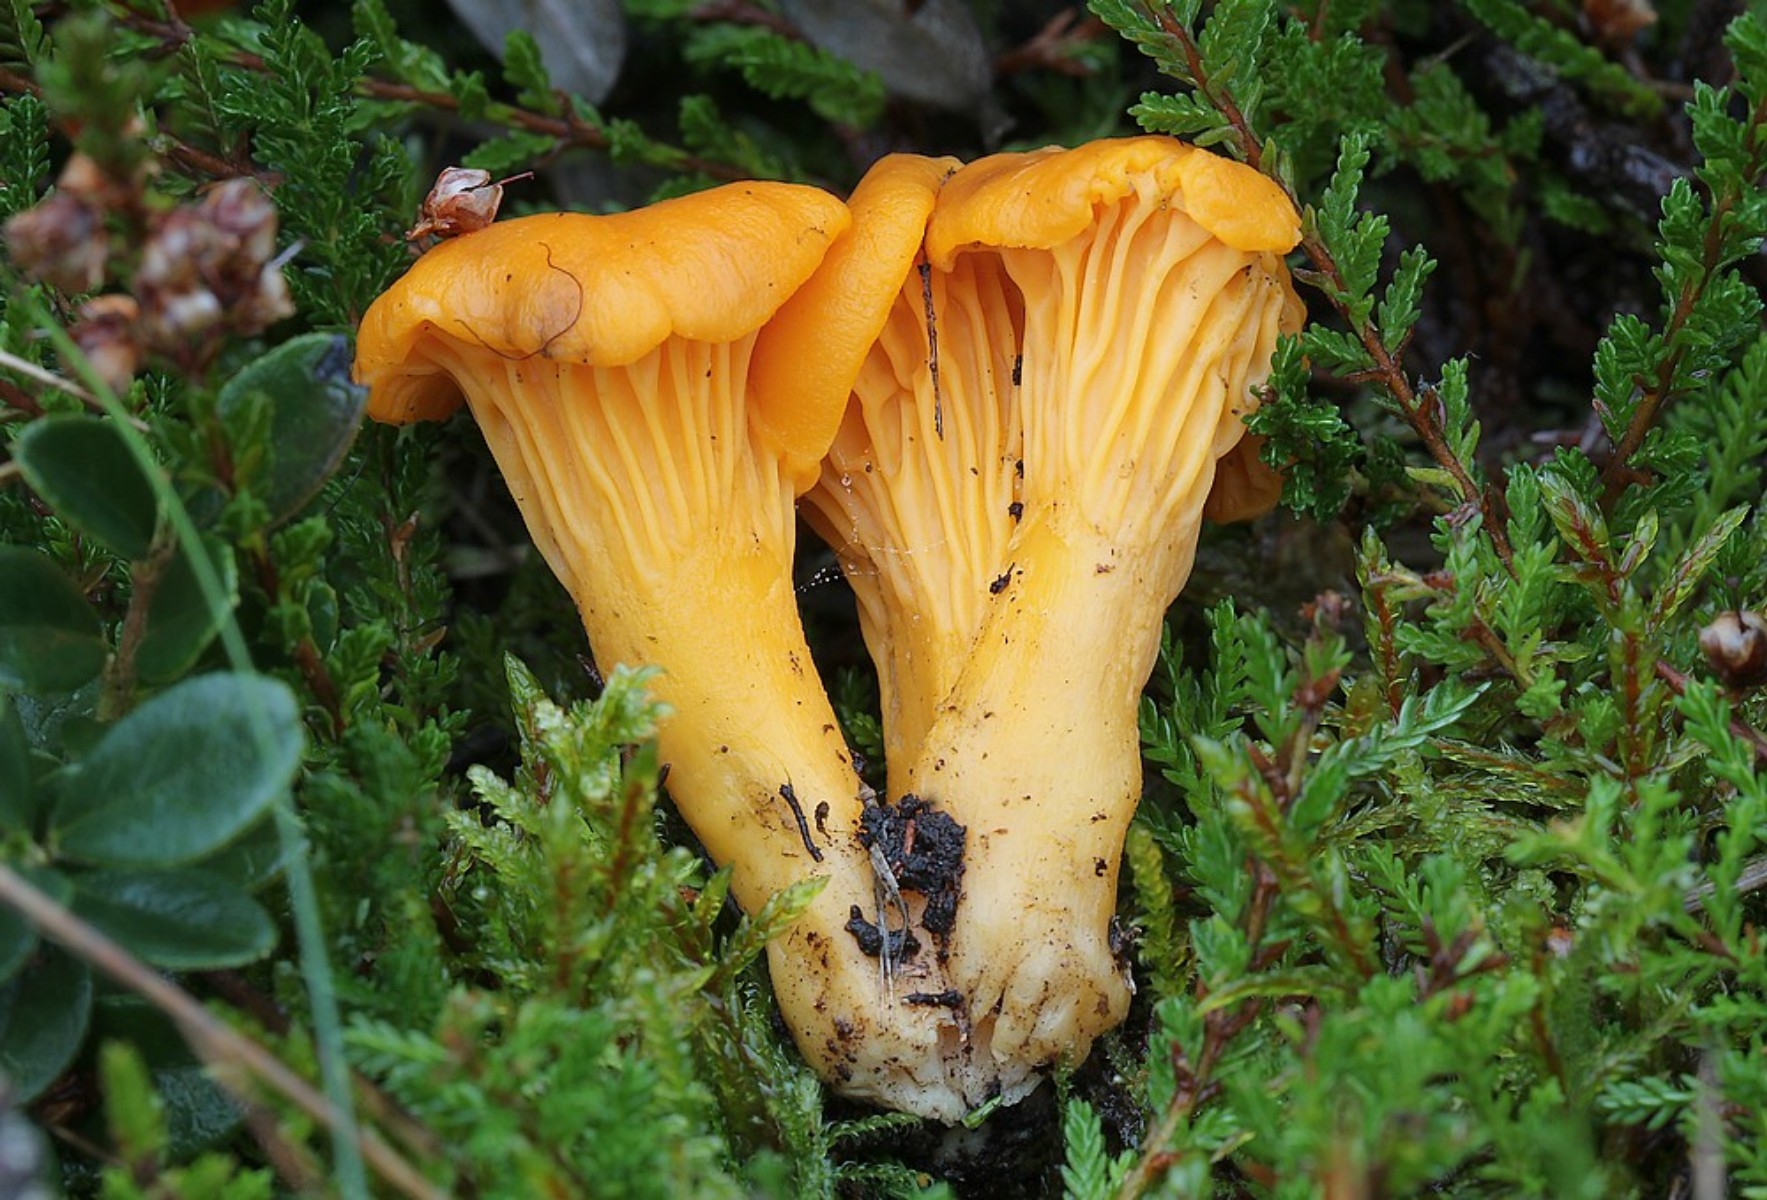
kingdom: Fungi
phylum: Basidiomycota
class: Agaricomycetes
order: Cantharellales
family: Hydnaceae
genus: Cantharellus
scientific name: Cantharellus cibarius
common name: almindelig kantarel
